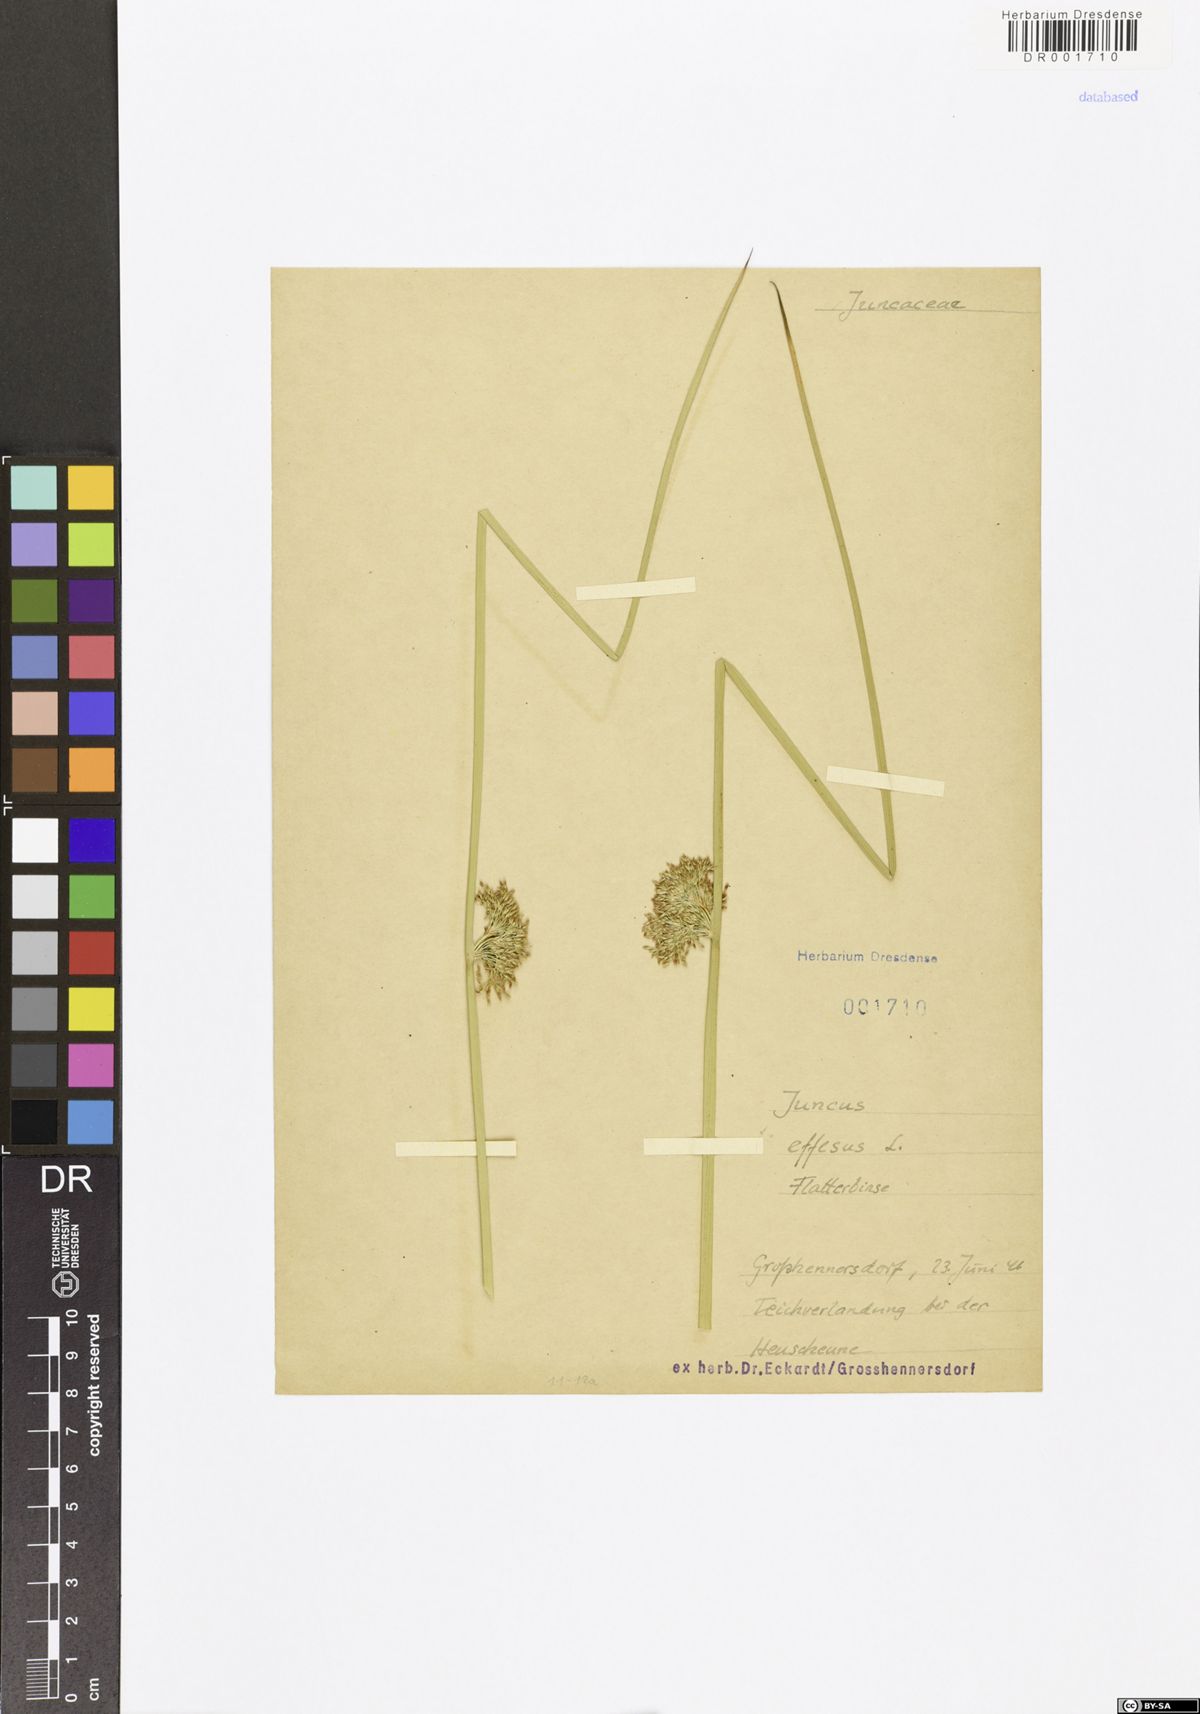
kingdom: Plantae
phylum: Tracheophyta
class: Liliopsida
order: Poales
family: Juncaceae
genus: Juncus
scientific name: Juncus effusus
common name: Soft rush
